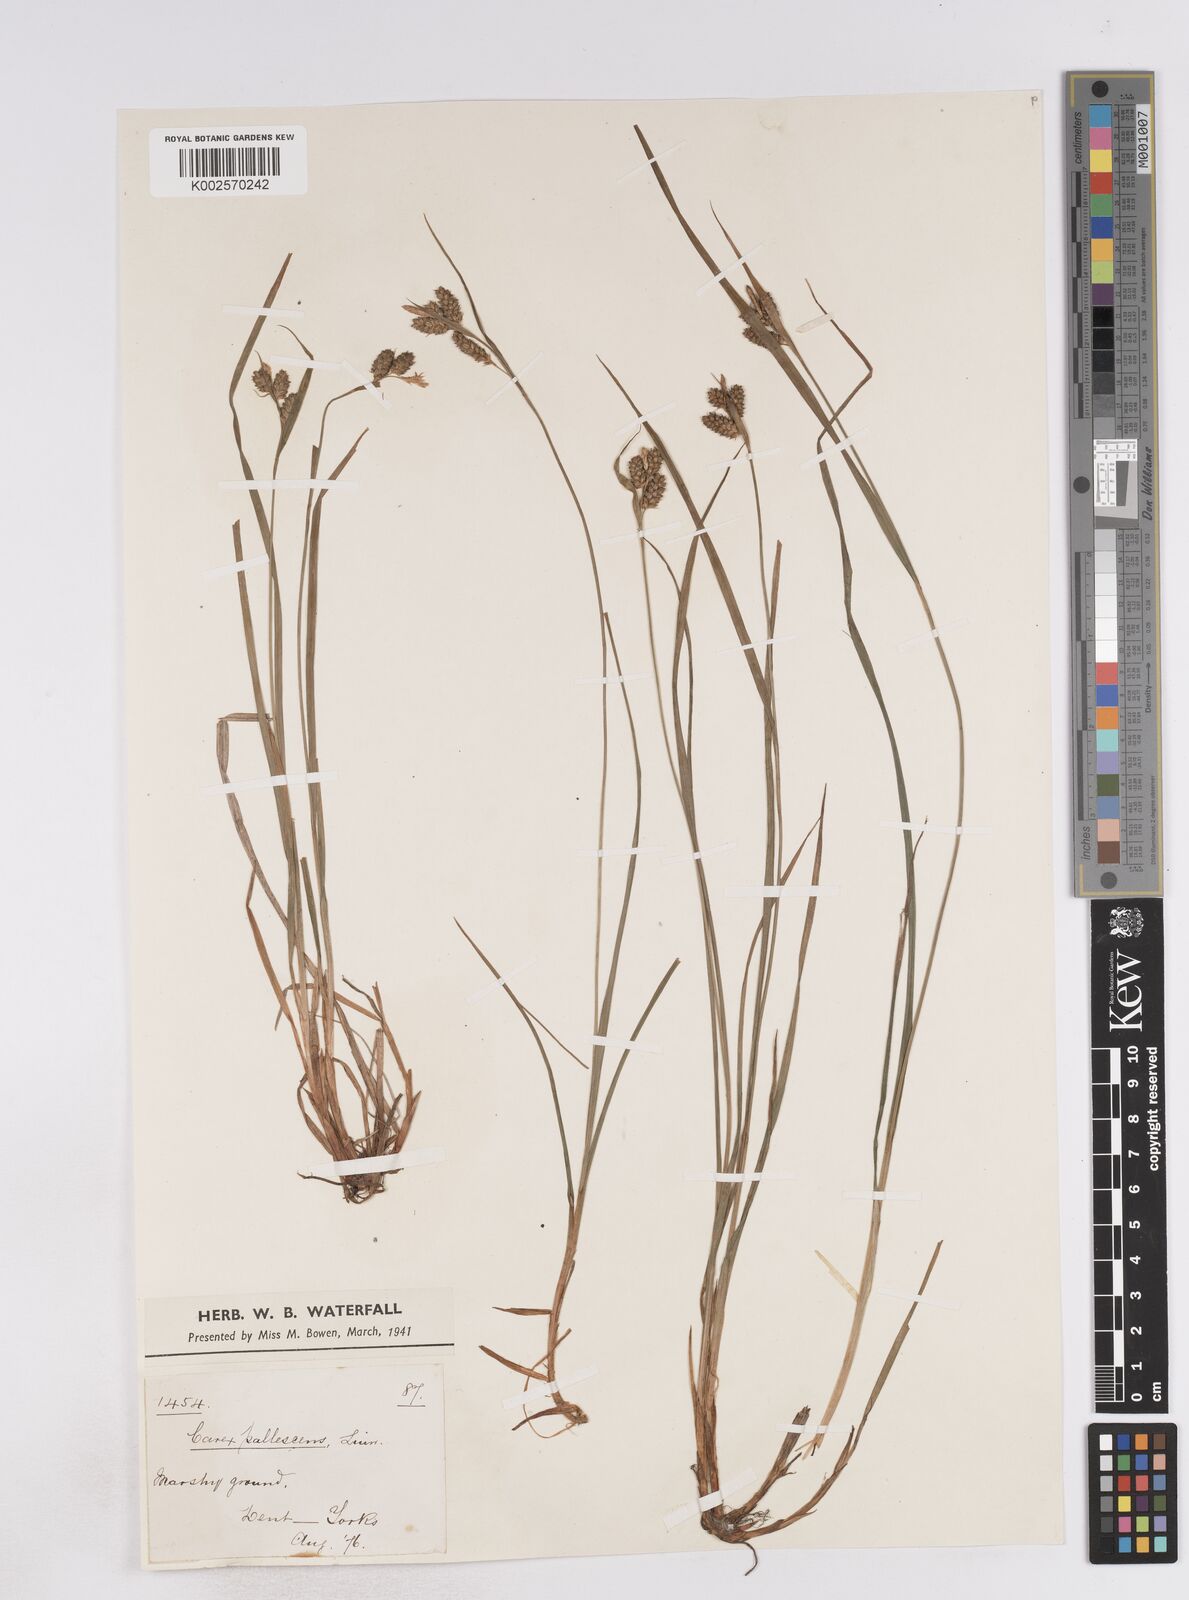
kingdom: Plantae
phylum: Tracheophyta
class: Liliopsida
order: Poales
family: Cyperaceae
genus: Carex
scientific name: Carex pallescens
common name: Pale sedge
